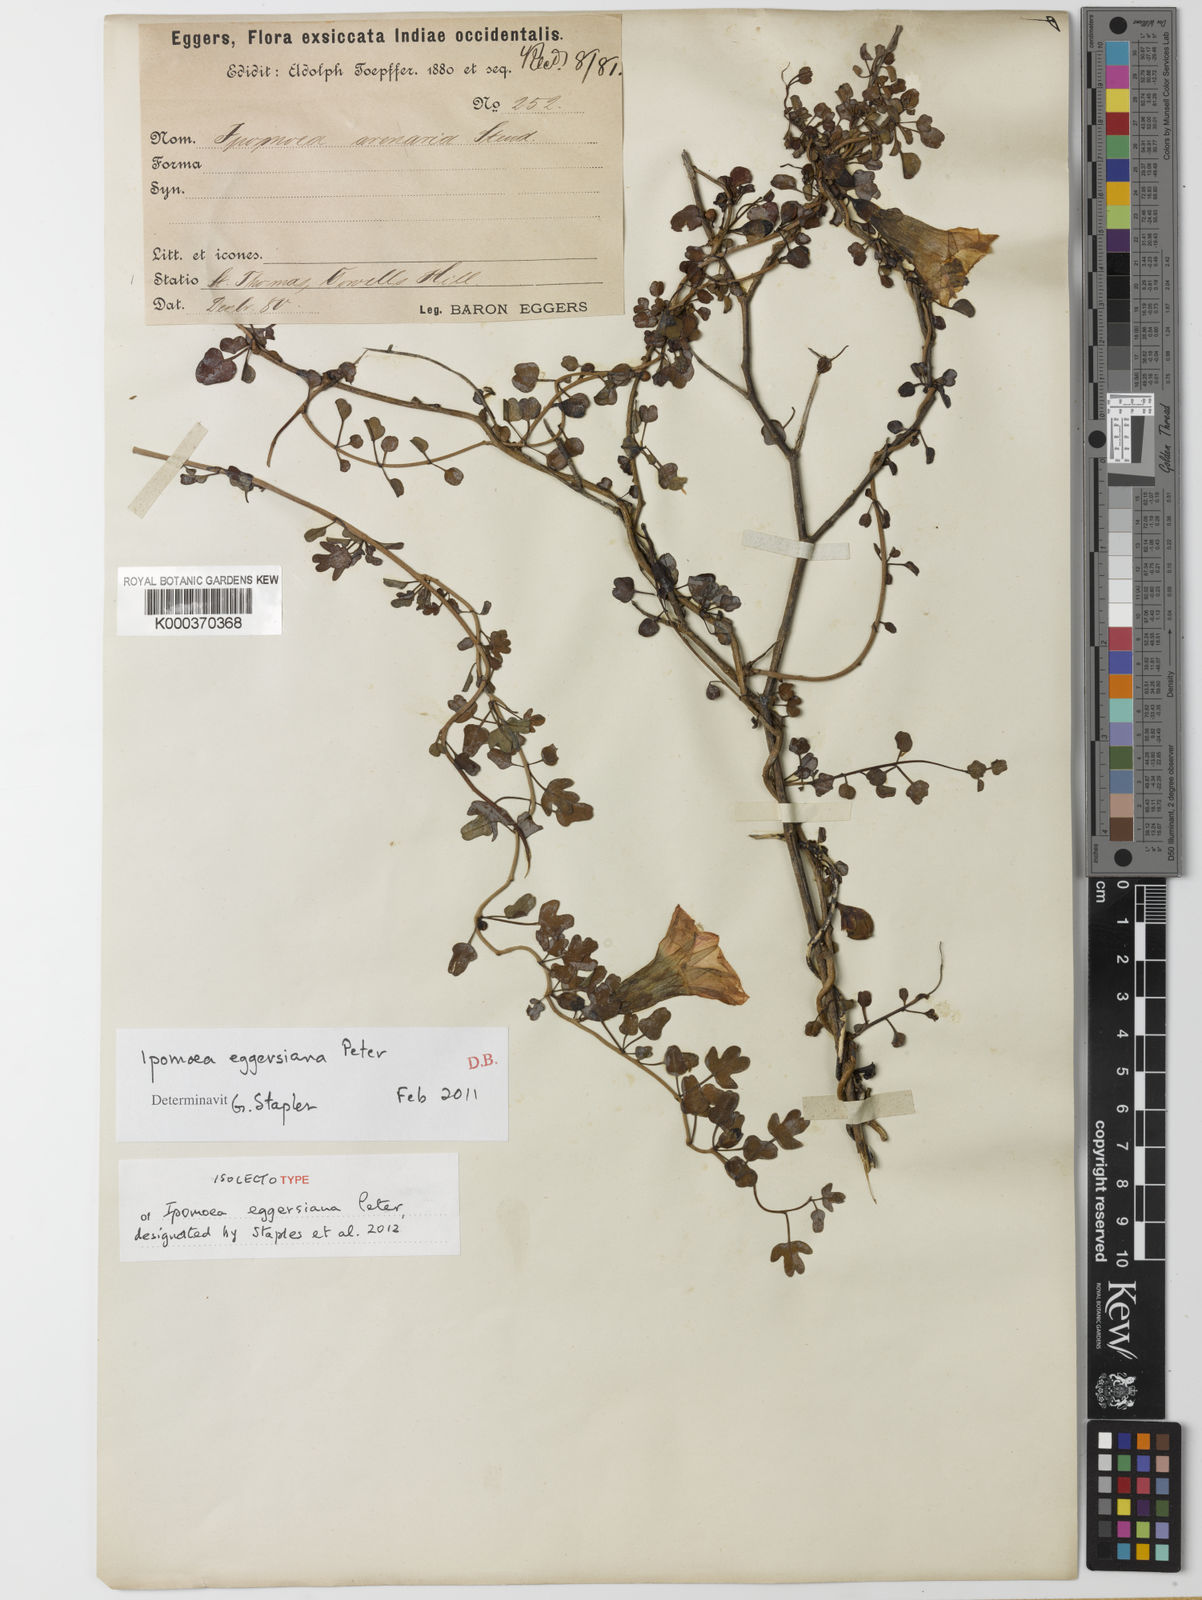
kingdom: Plantae
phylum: Tracheophyta
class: Magnoliopsida
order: Solanales
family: Convolvulaceae
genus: Ipomoea
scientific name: Ipomoea eggersiana
